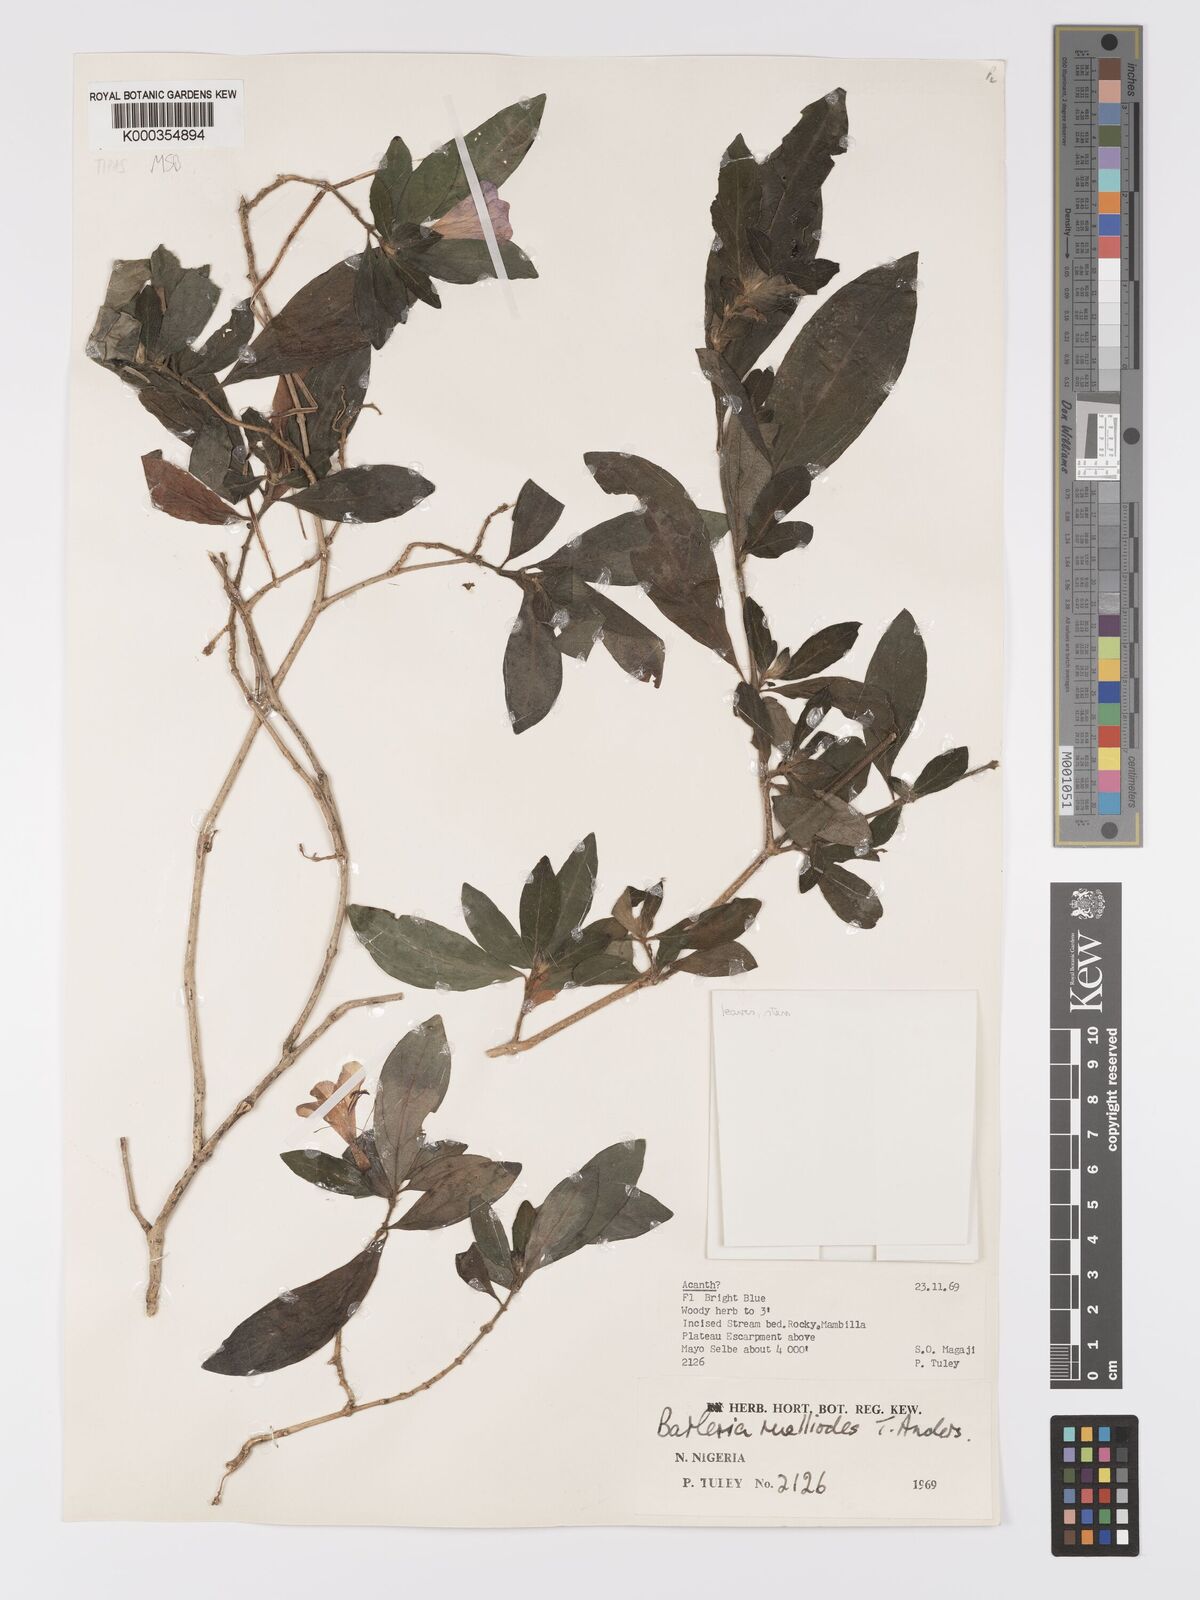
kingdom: Plantae
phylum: Tracheophyta
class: Magnoliopsida
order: Lamiales
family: Acanthaceae
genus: Barleria
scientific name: Barleria ruellioides
